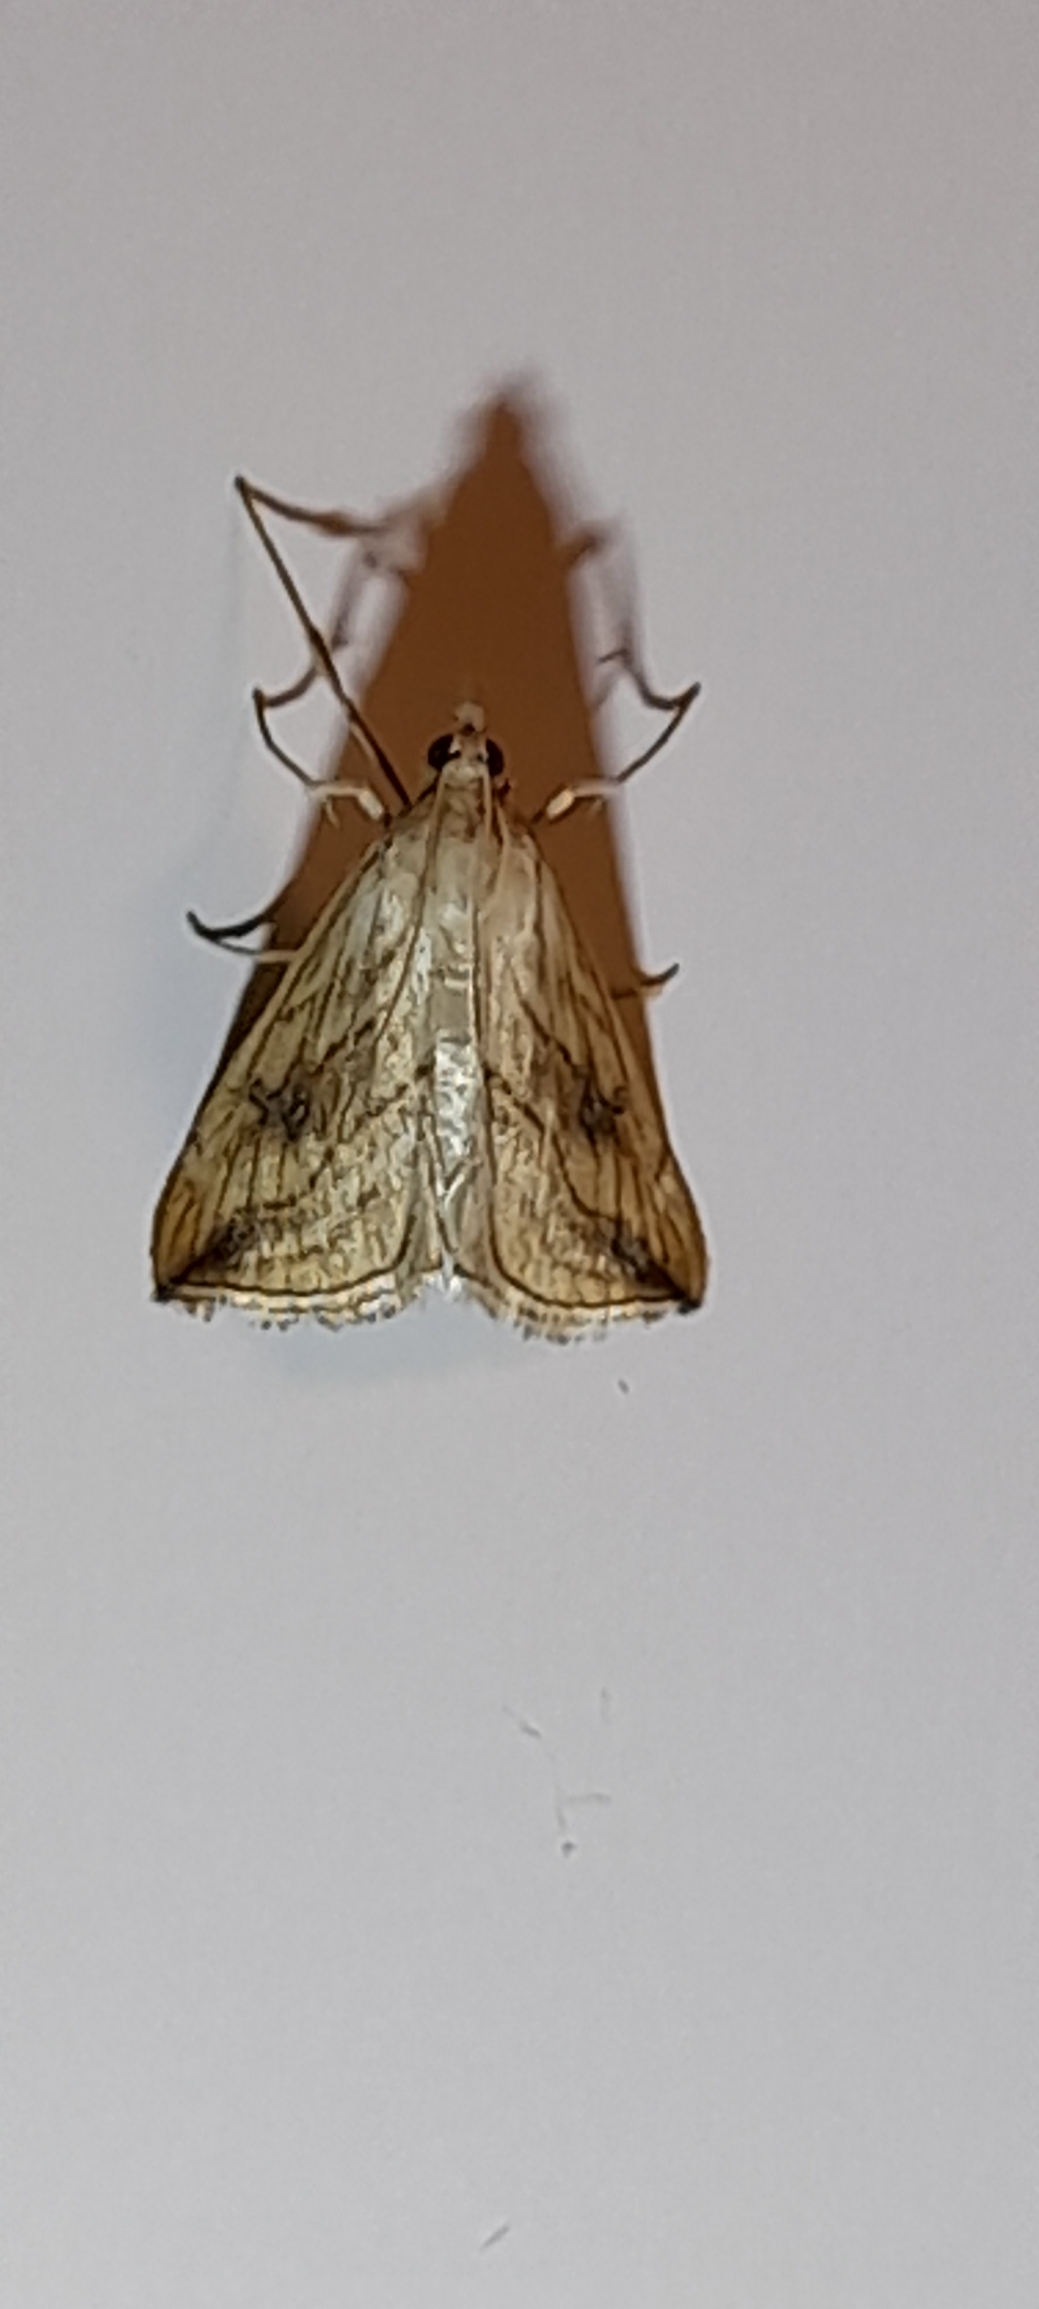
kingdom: Animalia
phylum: Arthropoda
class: Insecta
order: Lepidoptera
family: Crambidae
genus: Evergestis
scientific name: Evergestis forficalis
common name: Kålhalvmøl
